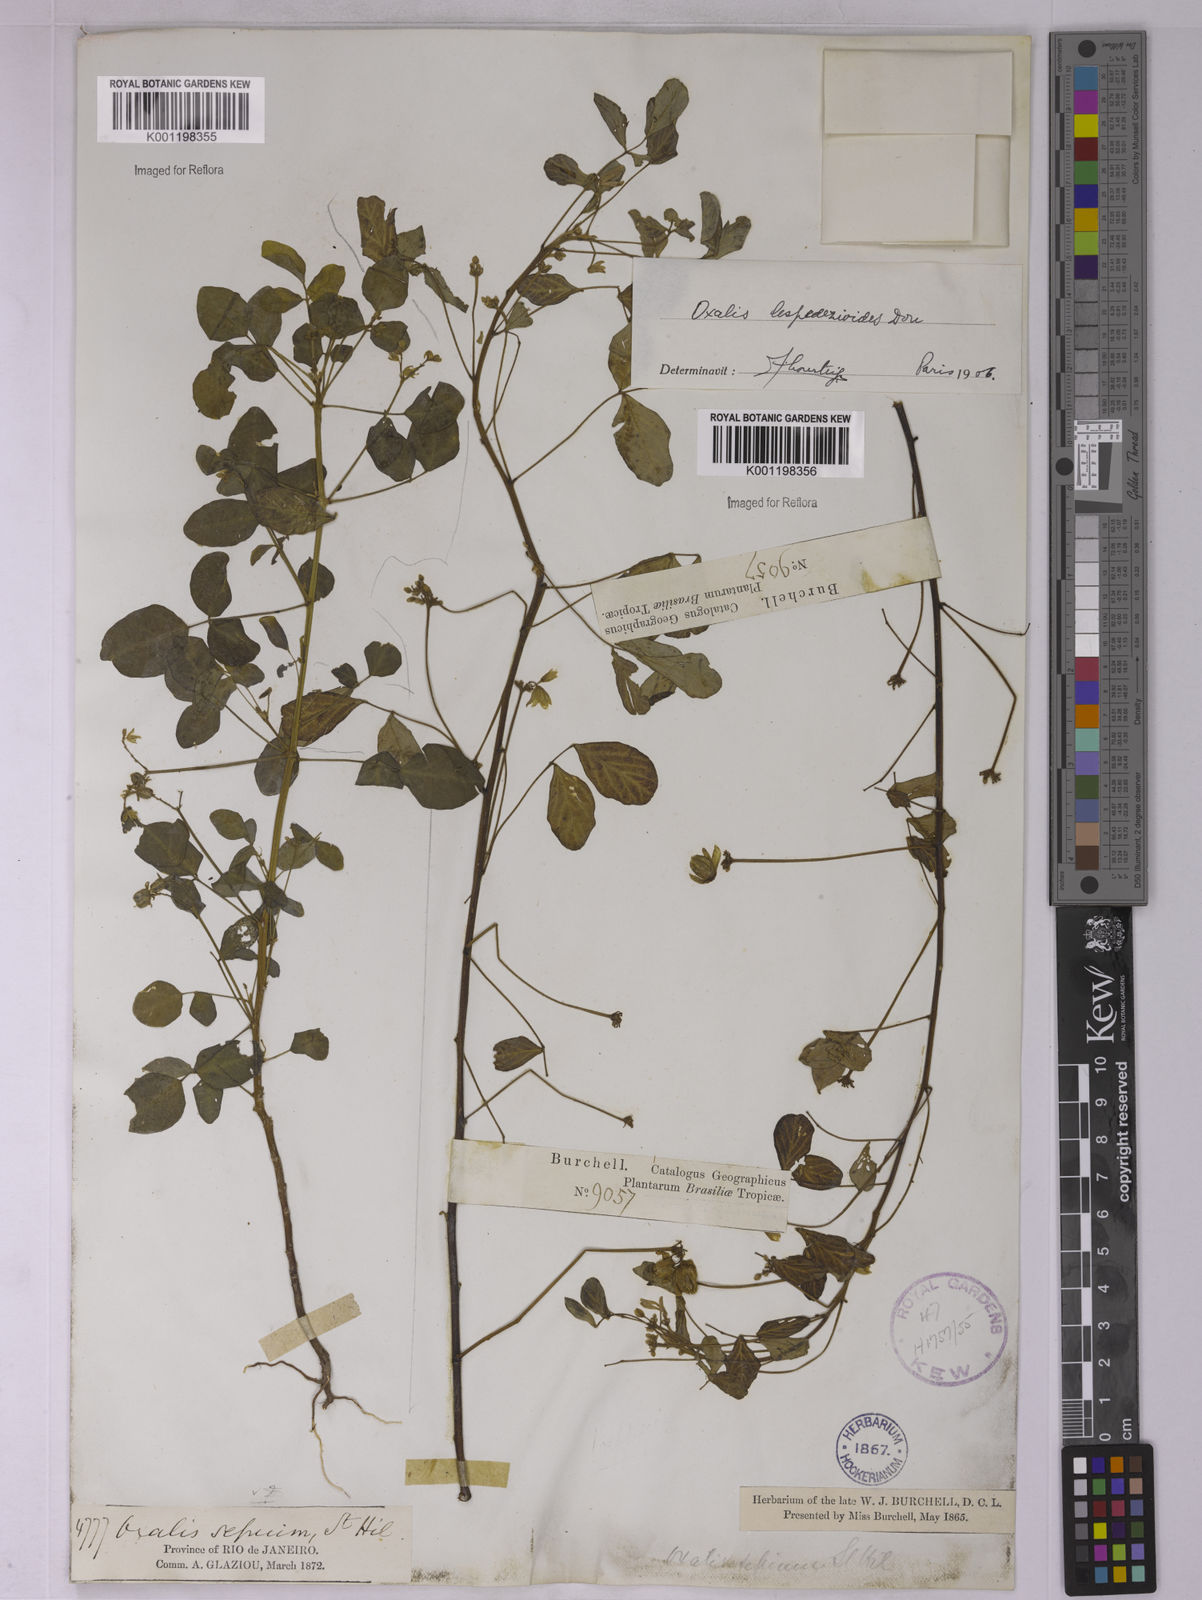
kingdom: Plantae
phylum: Tracheophyta
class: Magnoliopsida
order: Oxalidales
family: Oxalidaceae
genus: Oxalis
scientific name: Oxalis lespedezioides
